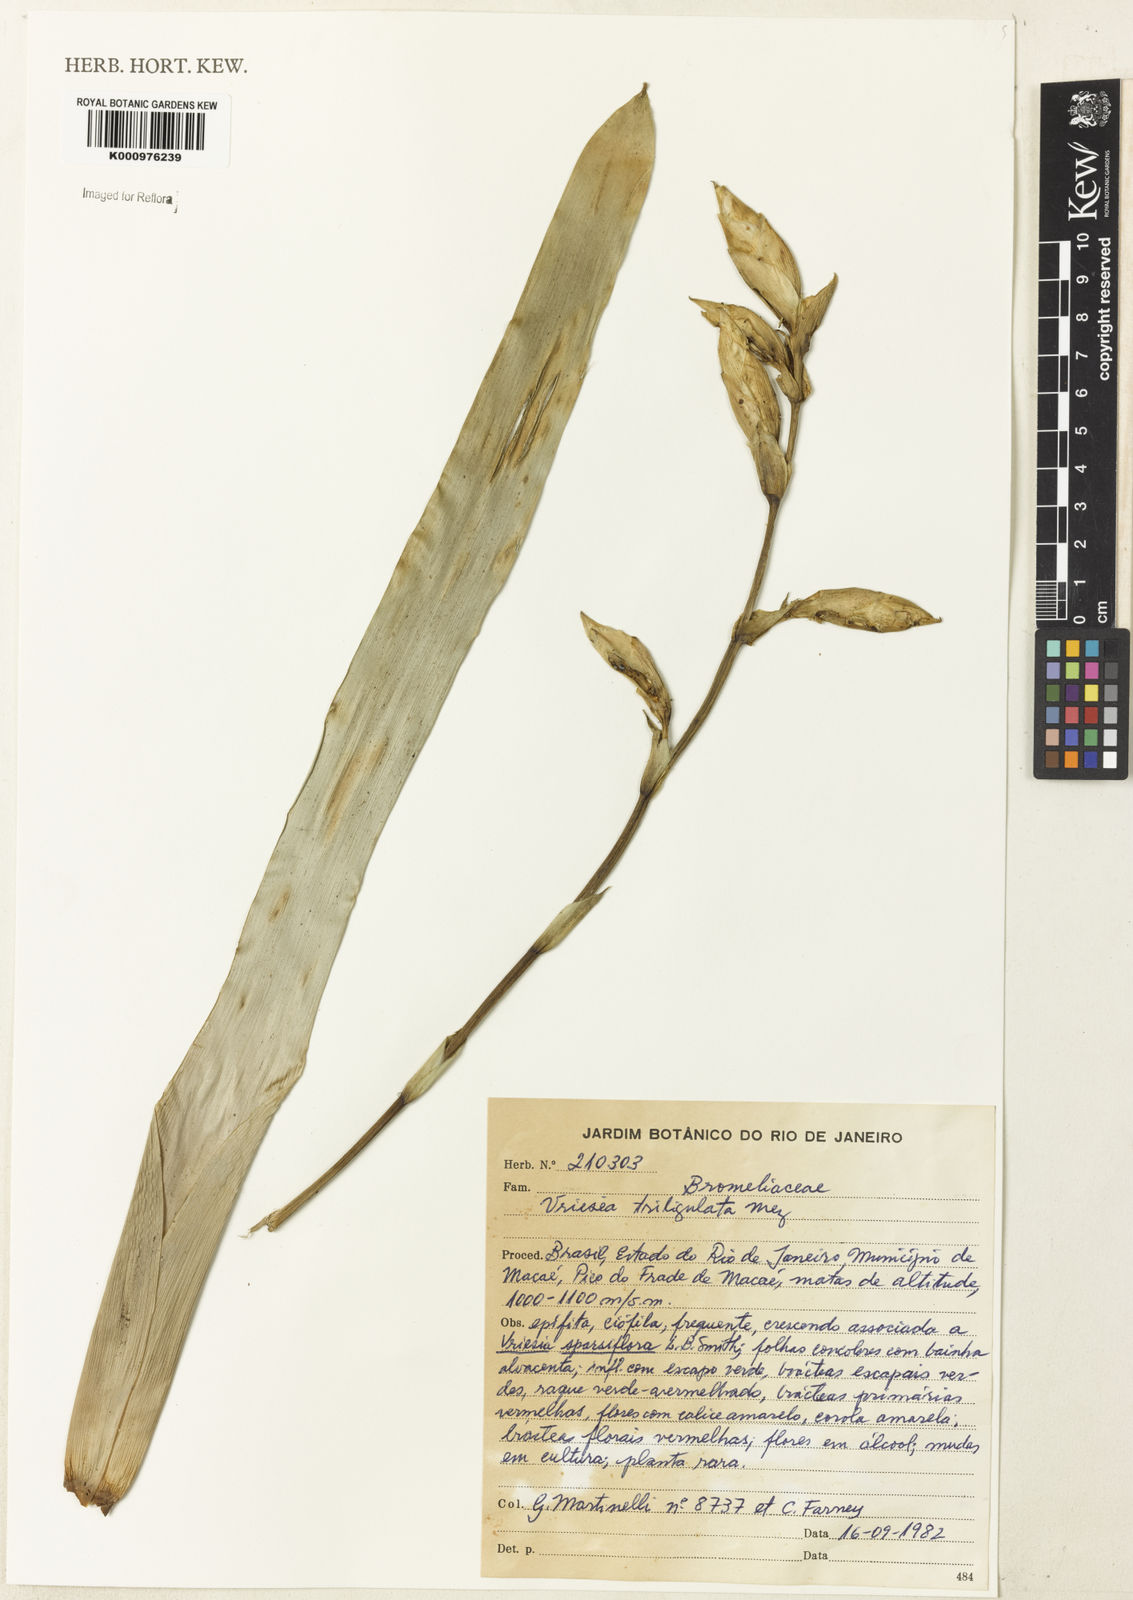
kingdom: Plantae
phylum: Tracheophyta
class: Liliopsida
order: Poales
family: Bromeliaceae
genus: Vriesea
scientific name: Vriesea triligulata
